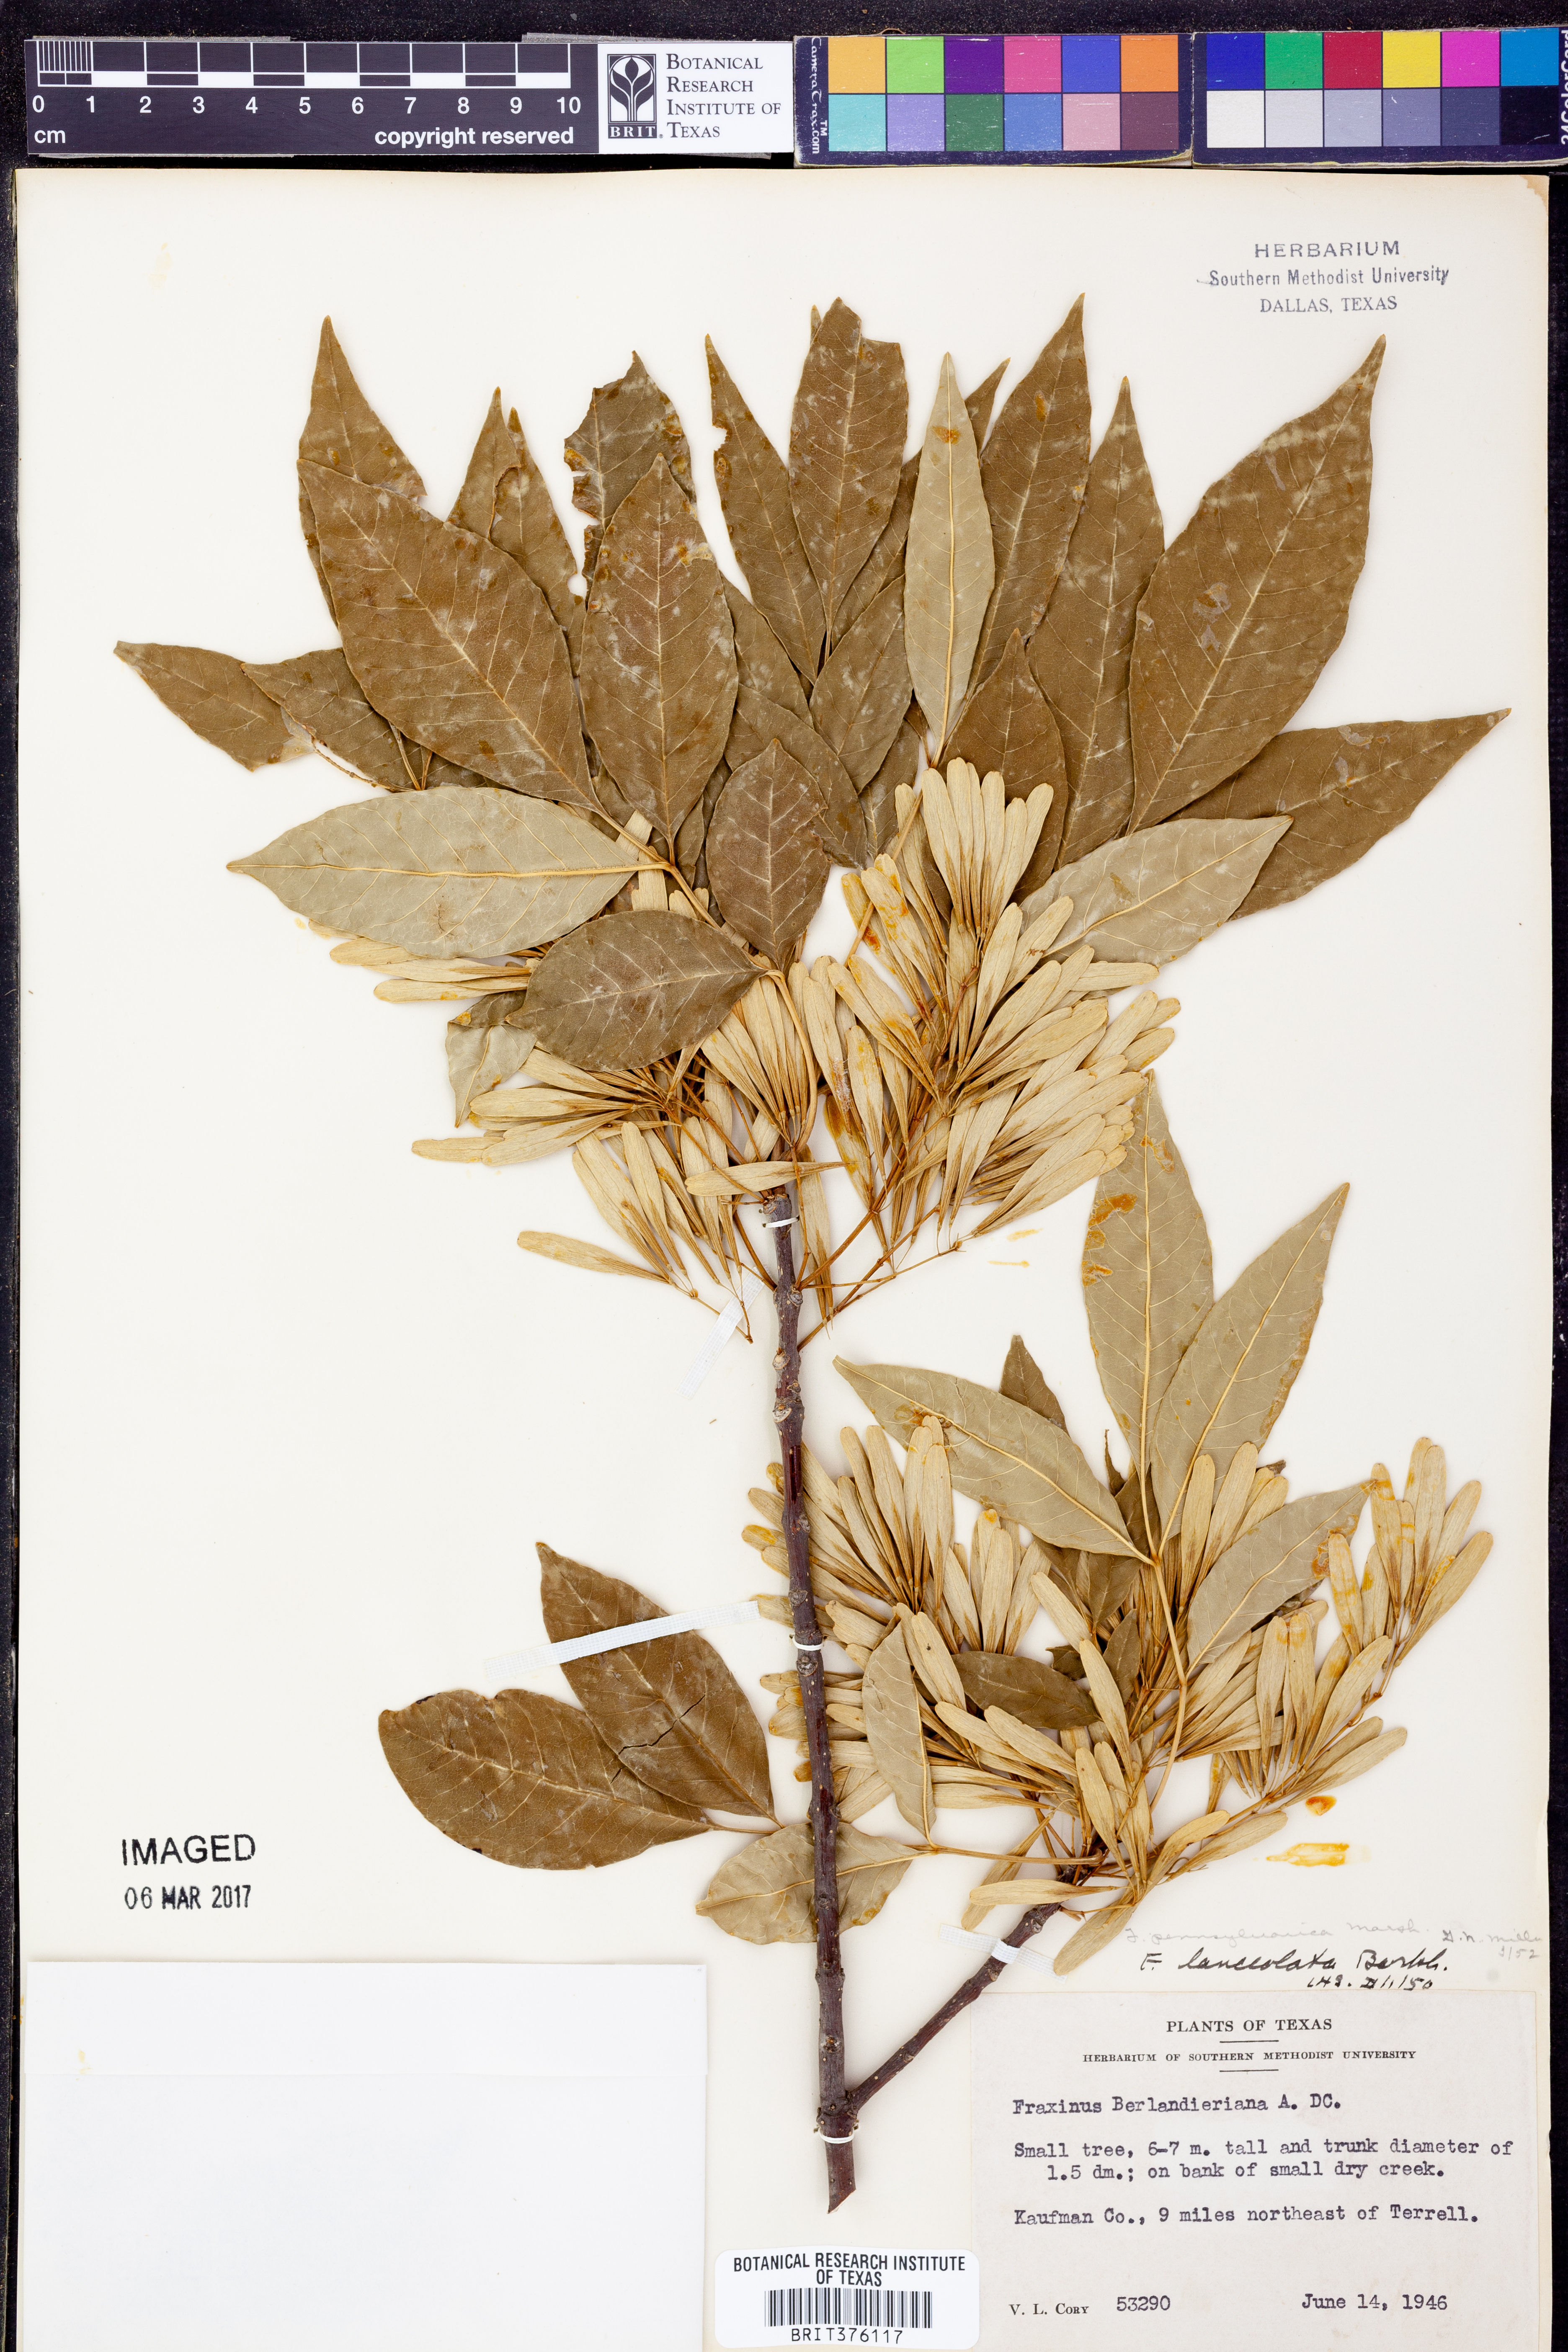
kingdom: Plantae
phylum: Tracheophyta
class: Magnoliopsida
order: Lamiales
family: Oleaceae
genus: Fraxinus
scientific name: Fraxinus pennsylvanica
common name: Green ash
